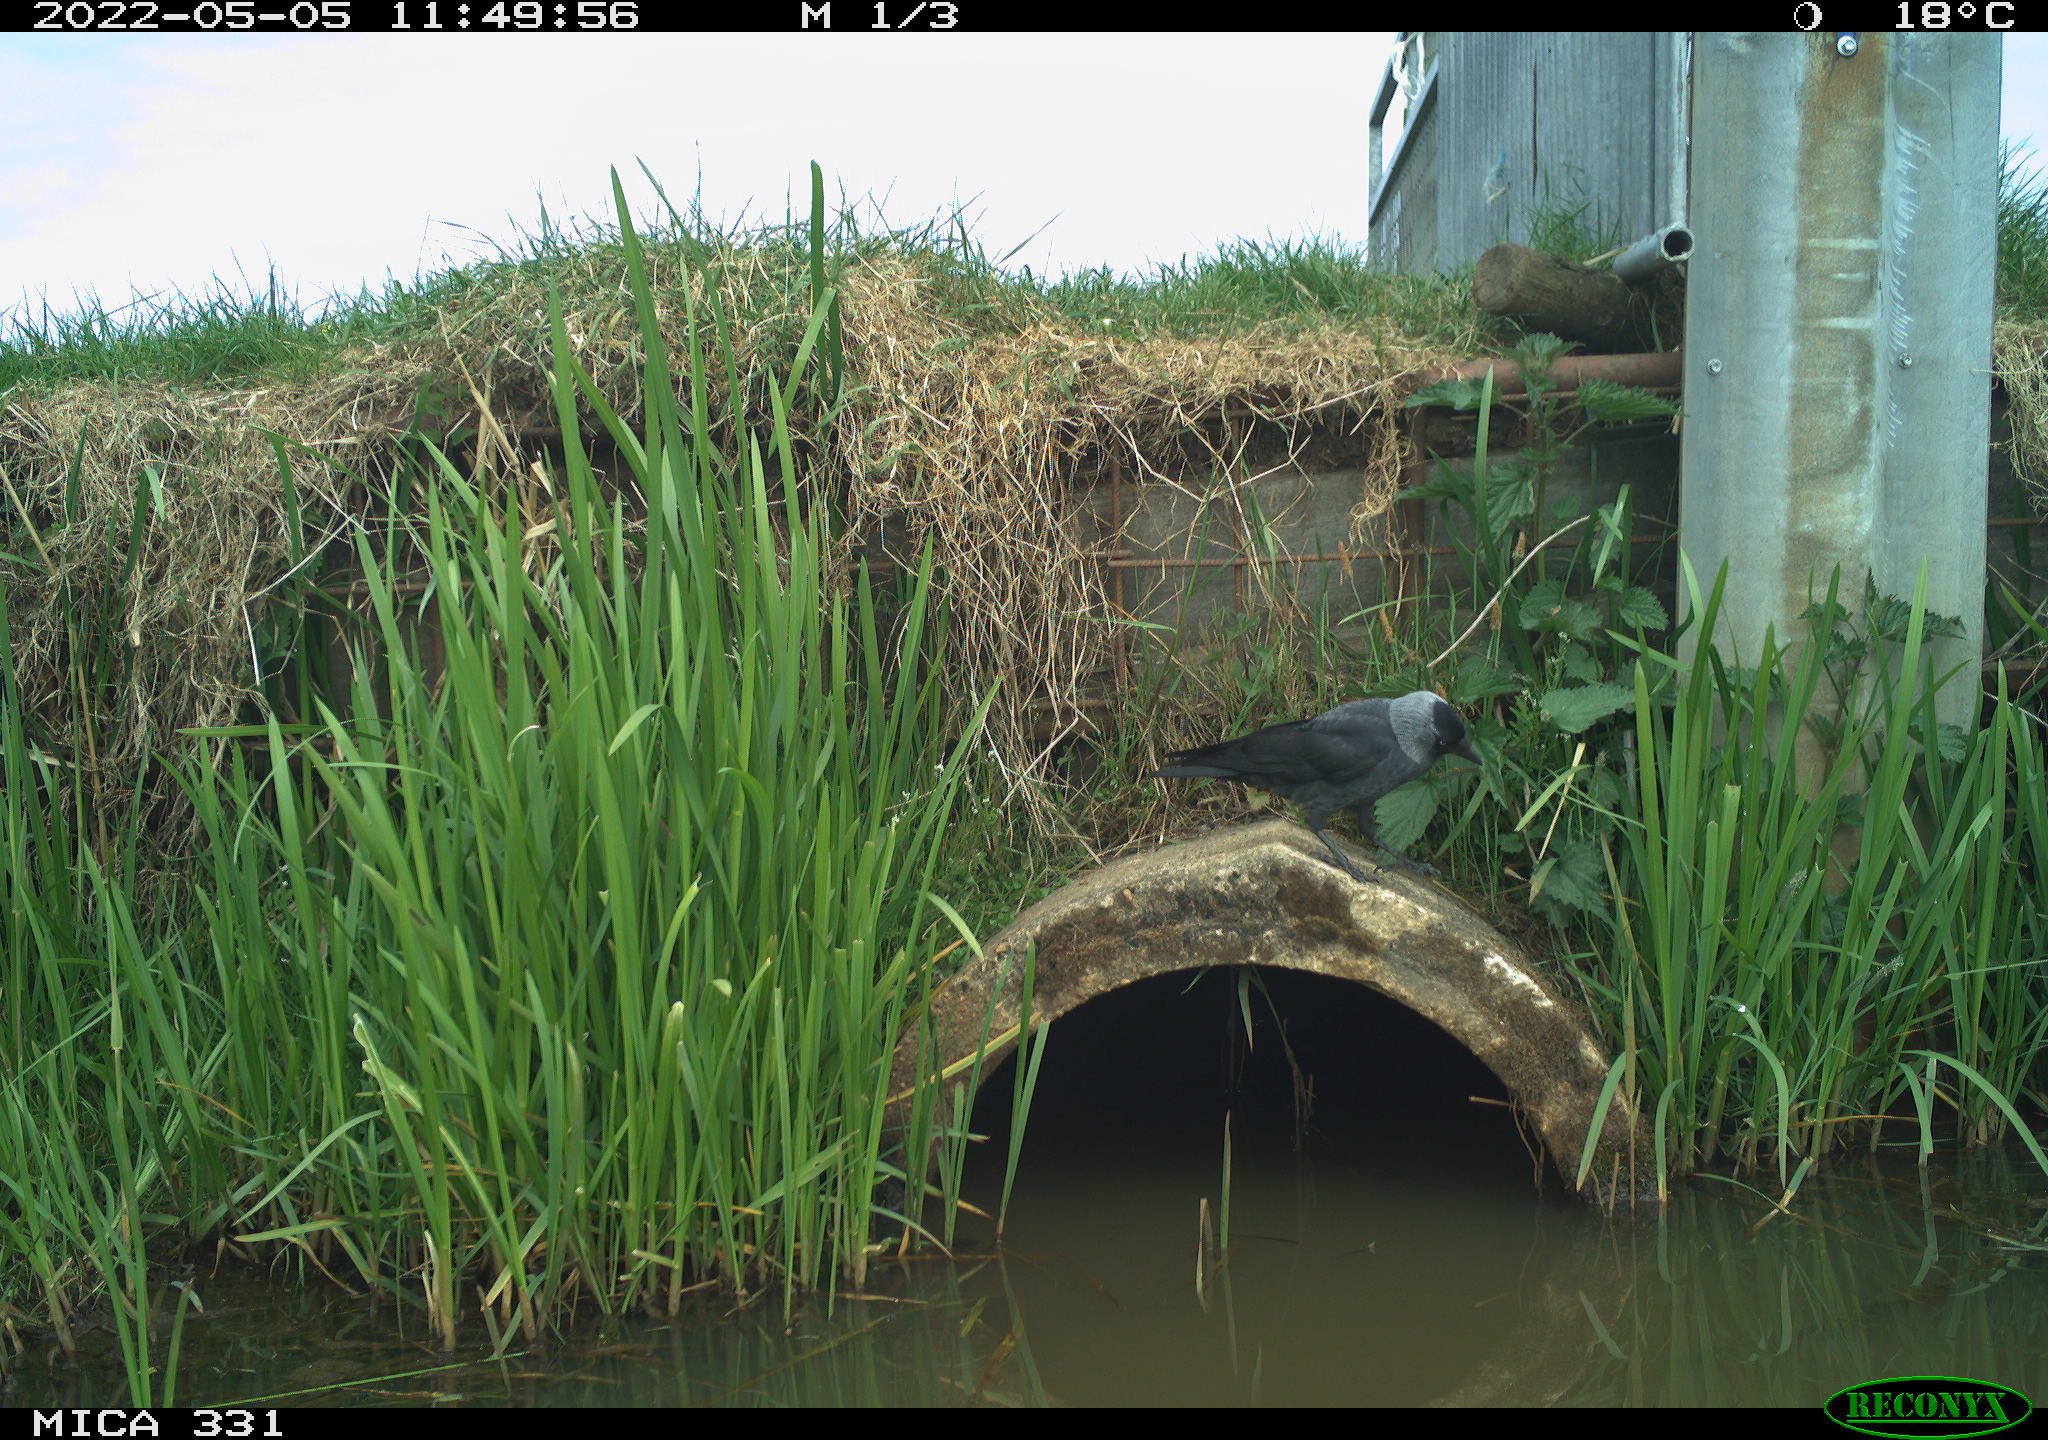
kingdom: Animalia
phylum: Chordata
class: Aves
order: Passeriformes
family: Corvidae
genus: Coloeus
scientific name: Coloeus monedula
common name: Western jackdaw
